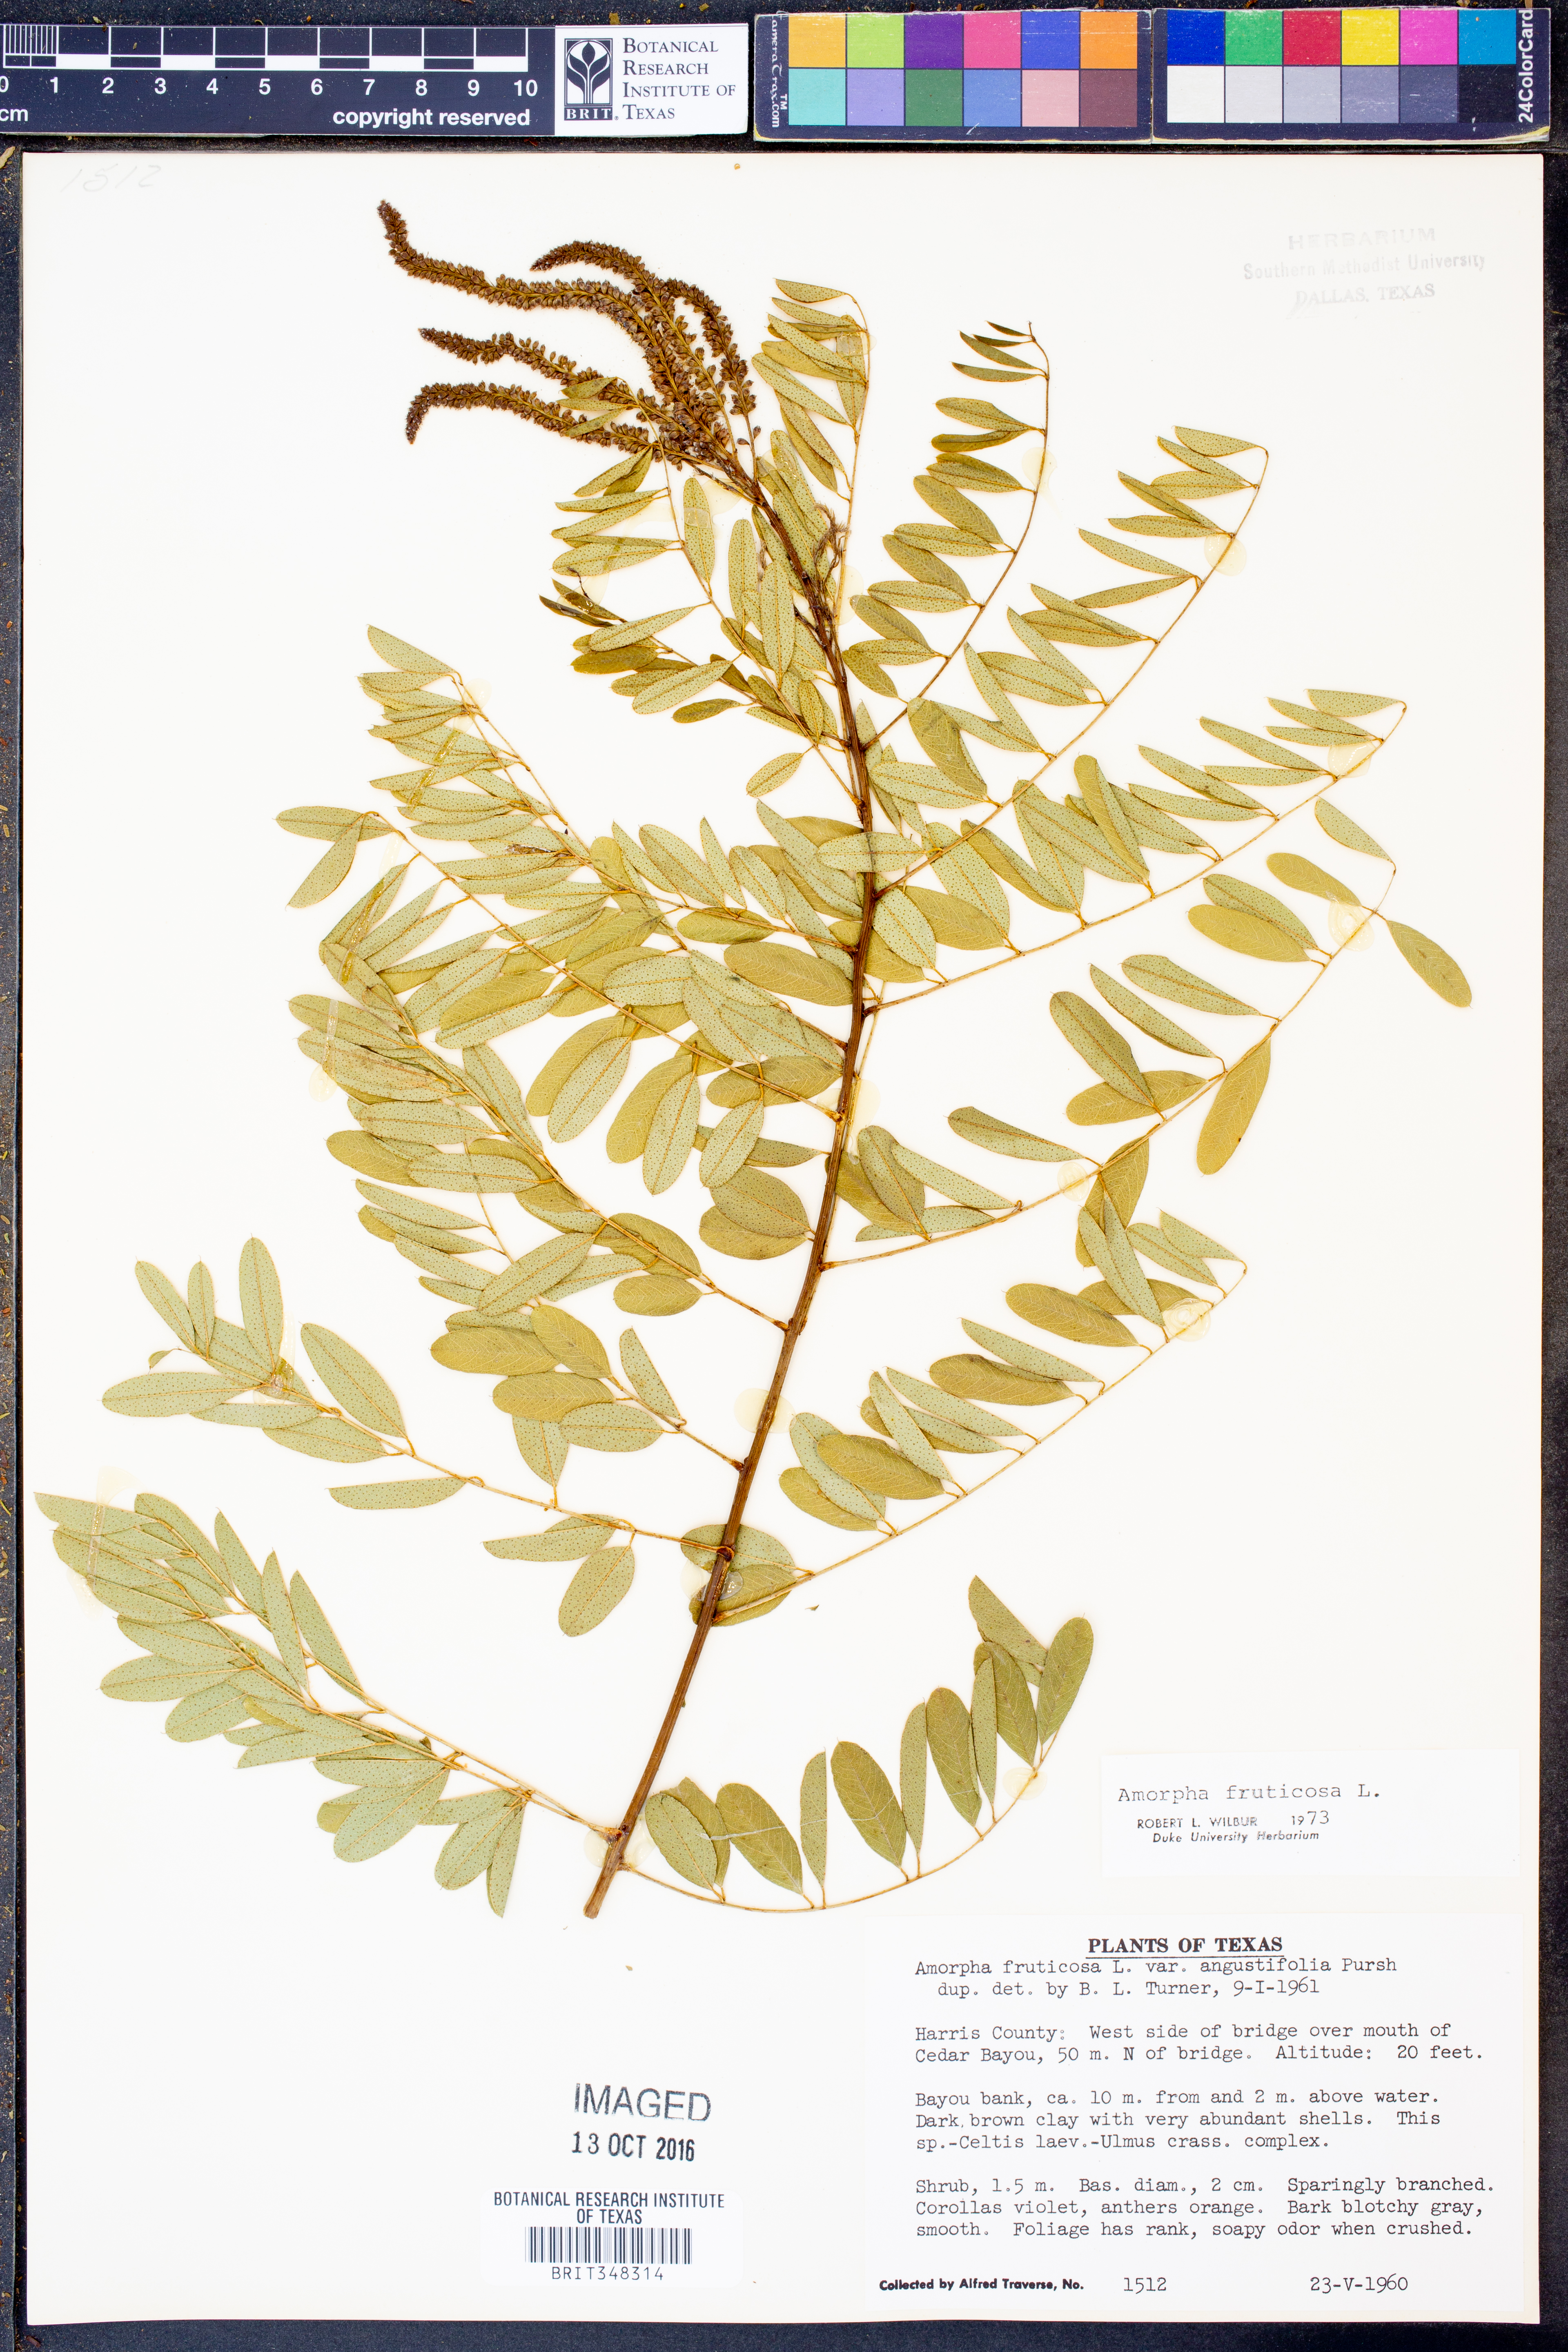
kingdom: Plantae
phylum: Tracheophyta
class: Magnoliopsida
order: Fabales
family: Fabaceae
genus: Amorpha
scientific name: Amorpha fruticosa
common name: False indigo
